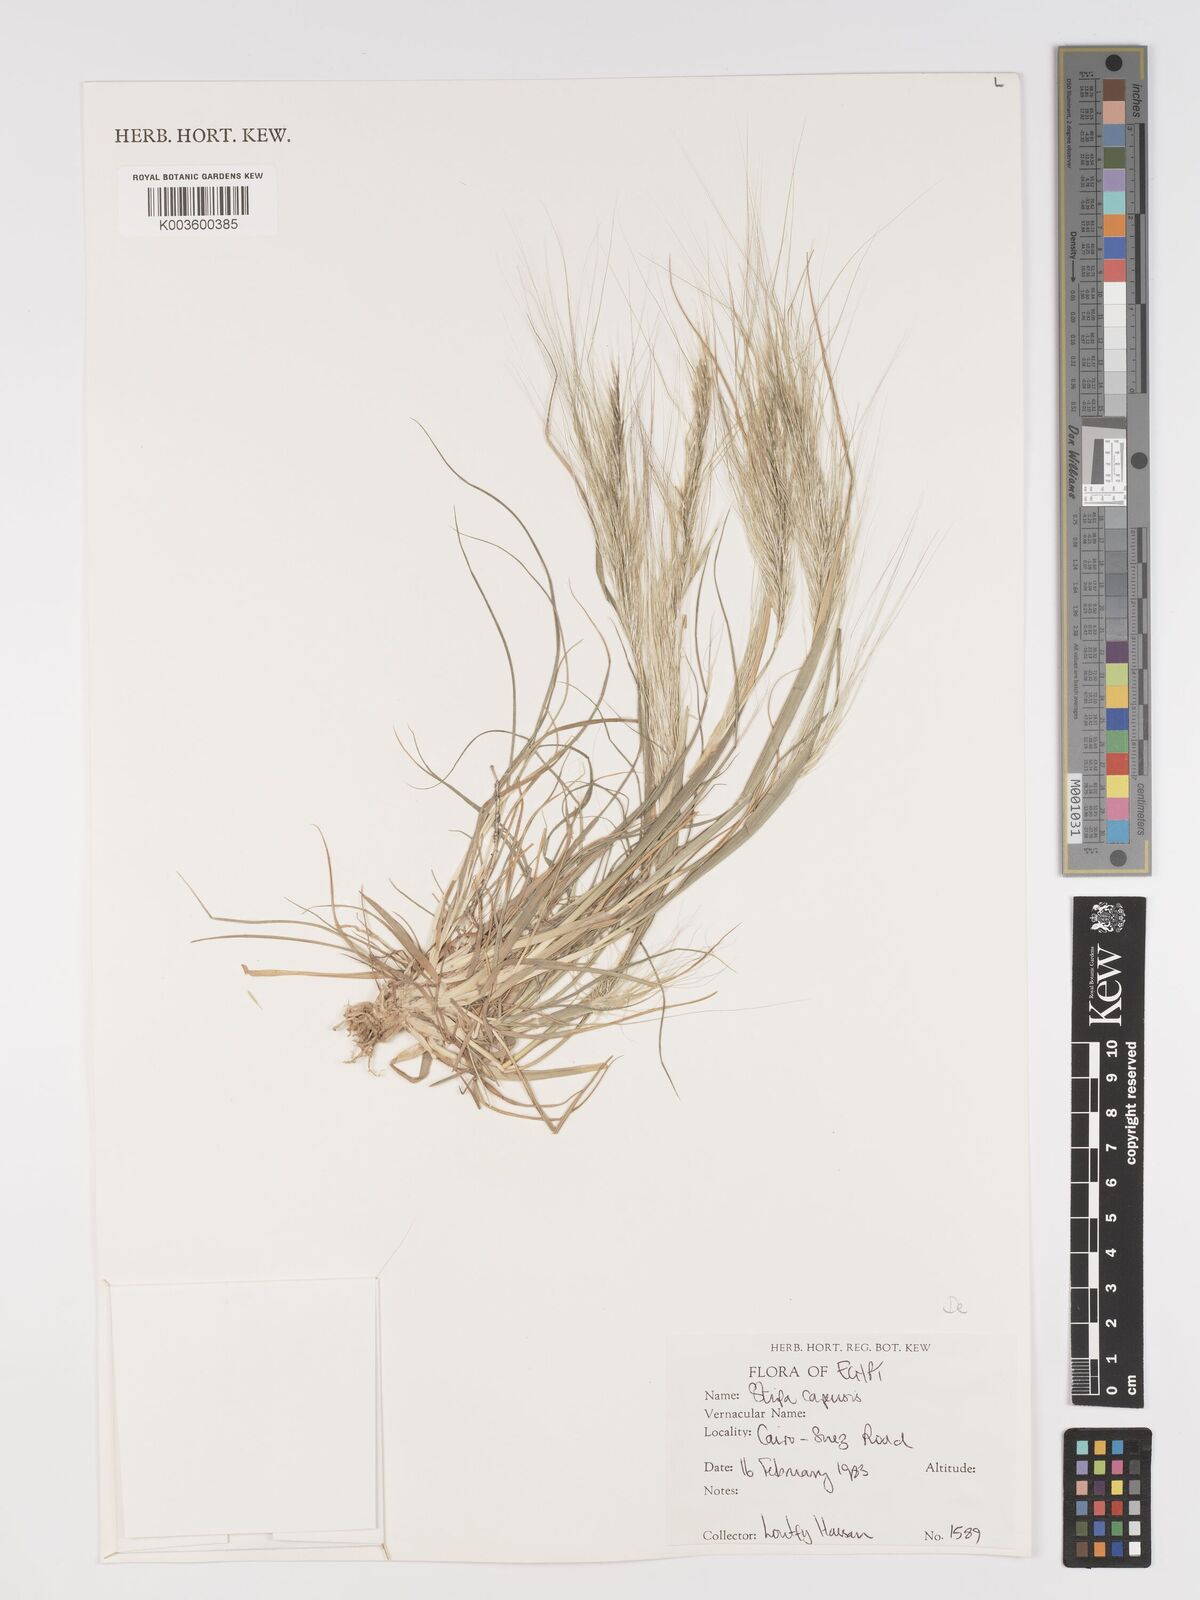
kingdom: Plantae
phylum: Tracheophyta
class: Liliopsida
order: Poales
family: Poaceae
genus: Stipellula
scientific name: Stipellula capensis
